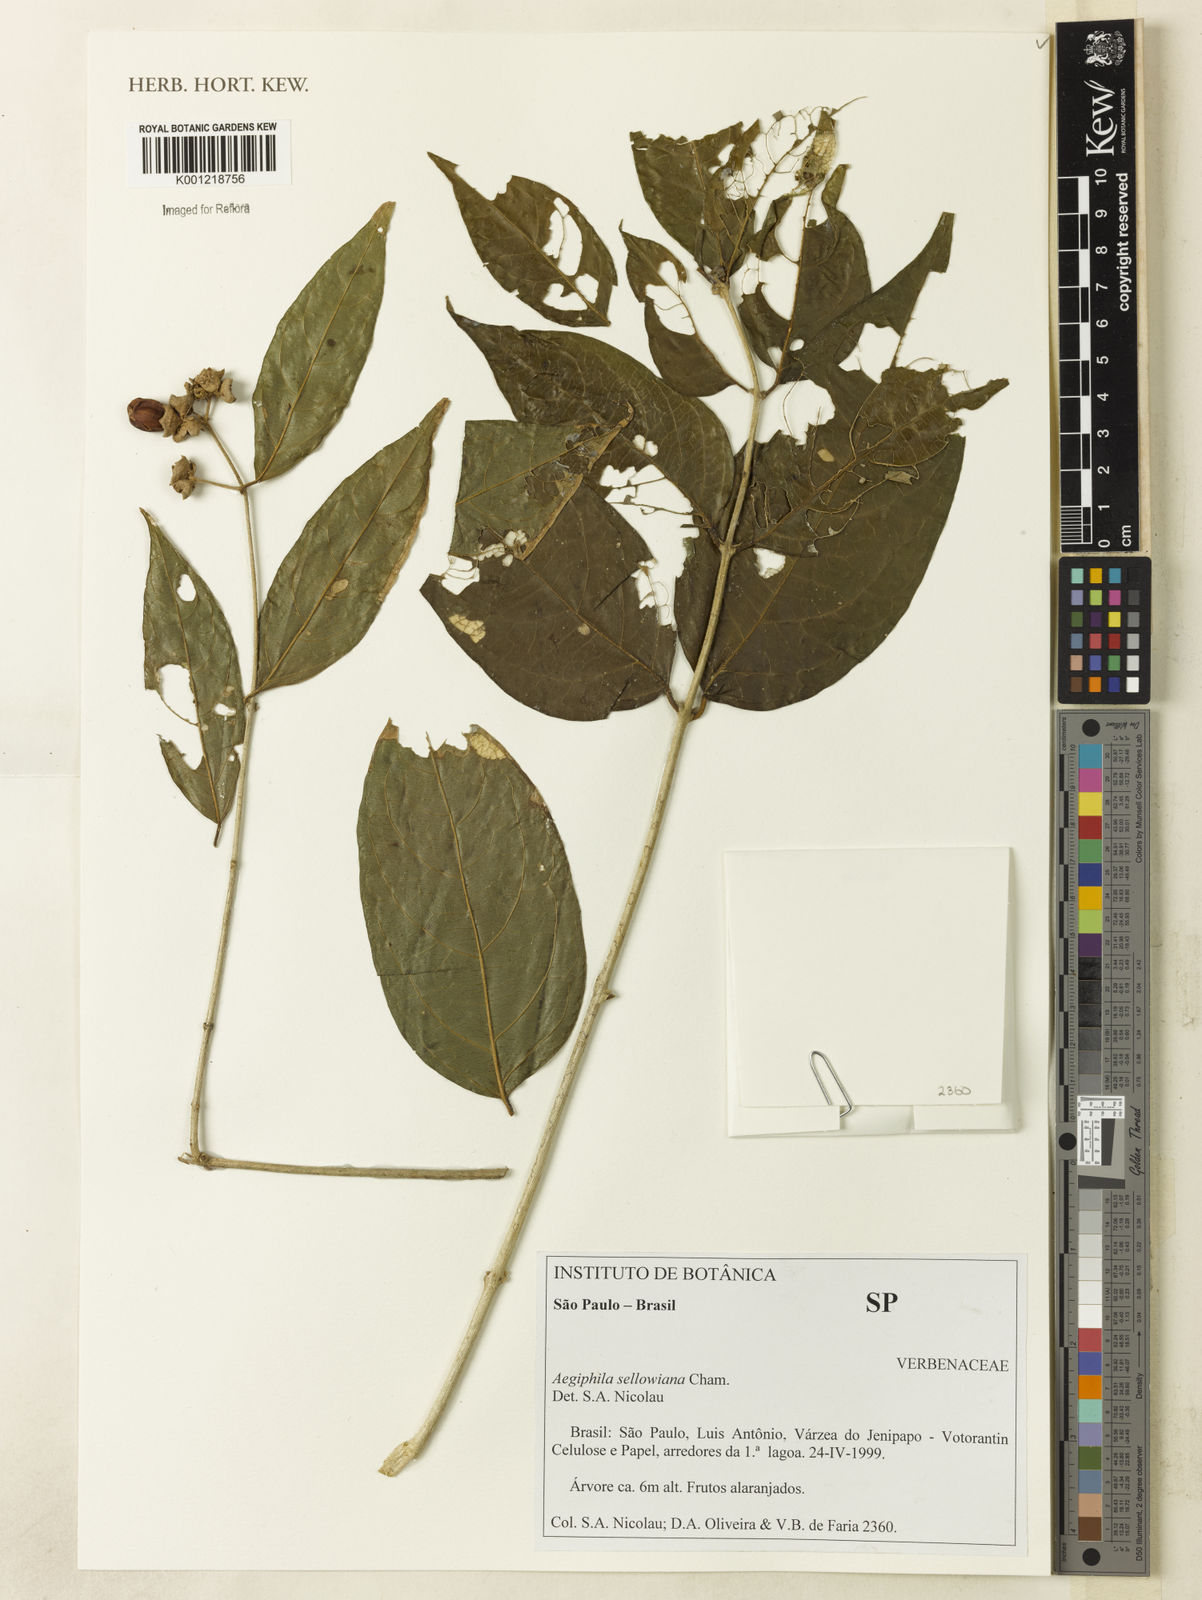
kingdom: Plantae
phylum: Tracheophyta
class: Magnoliopsida
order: Lamiales
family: Lamiaceae
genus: Aegiphila
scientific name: Aegiphila verticillata
